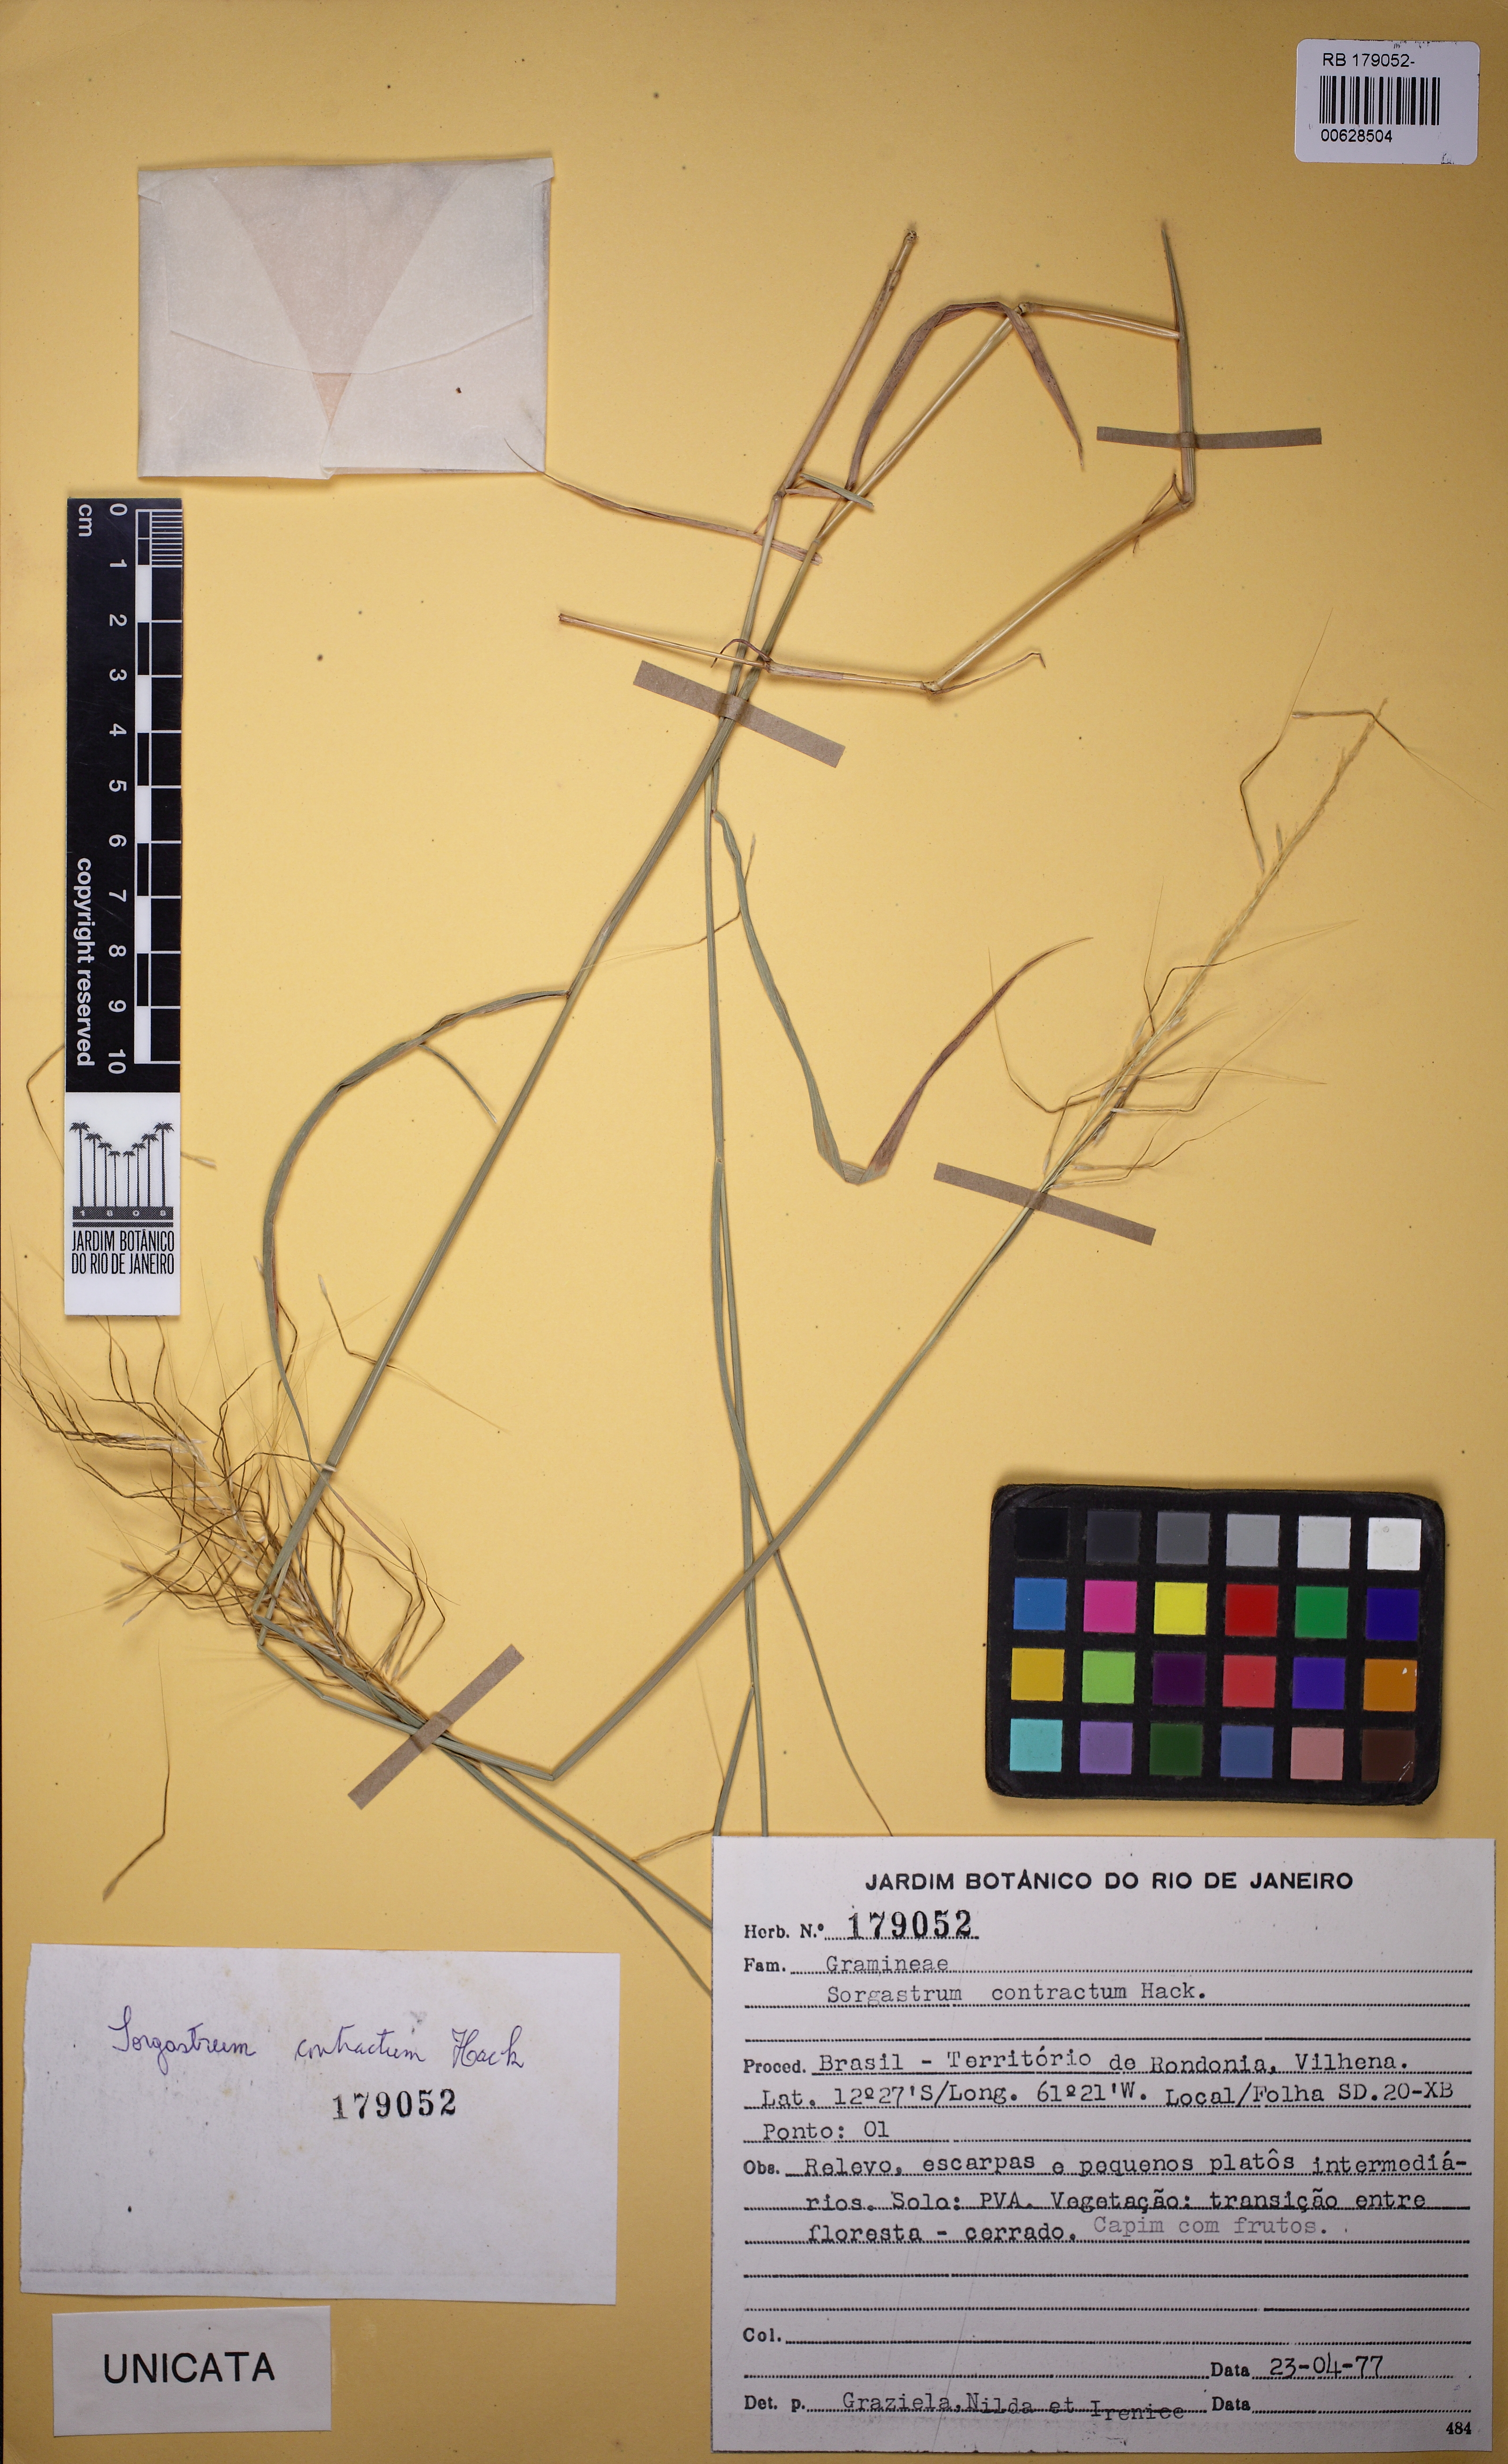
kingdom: Plantae
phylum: Tracheophyta
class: Liliopsida
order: Poales
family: Poaceae
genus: Sorghastrum
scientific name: Sorghastrum contractum
